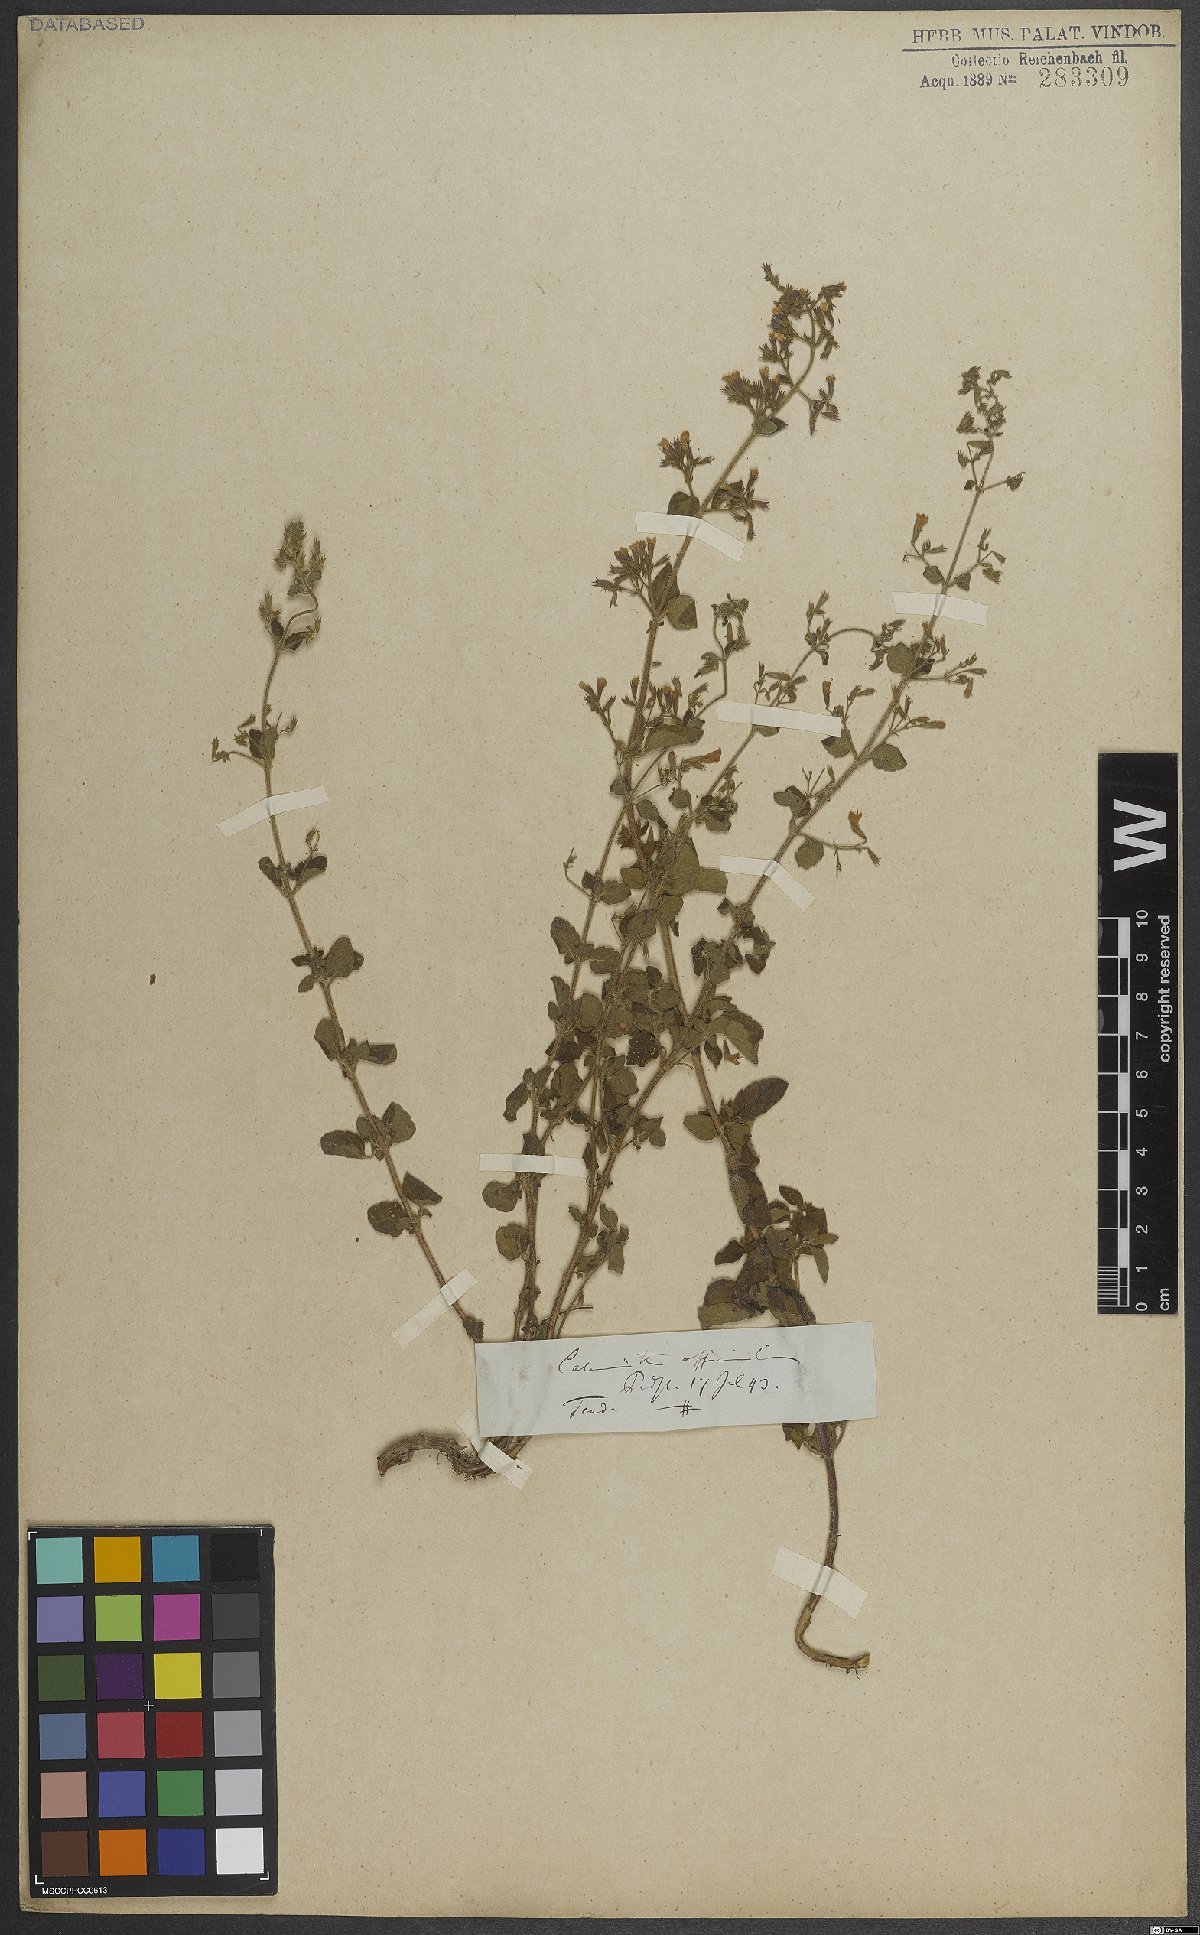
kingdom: Plantae
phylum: Tracheophyta
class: Magnoliopsida
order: Lamiales
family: Lamiaceae
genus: Clinopodium
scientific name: Clinopodium nepeta
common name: Lesser calamint
